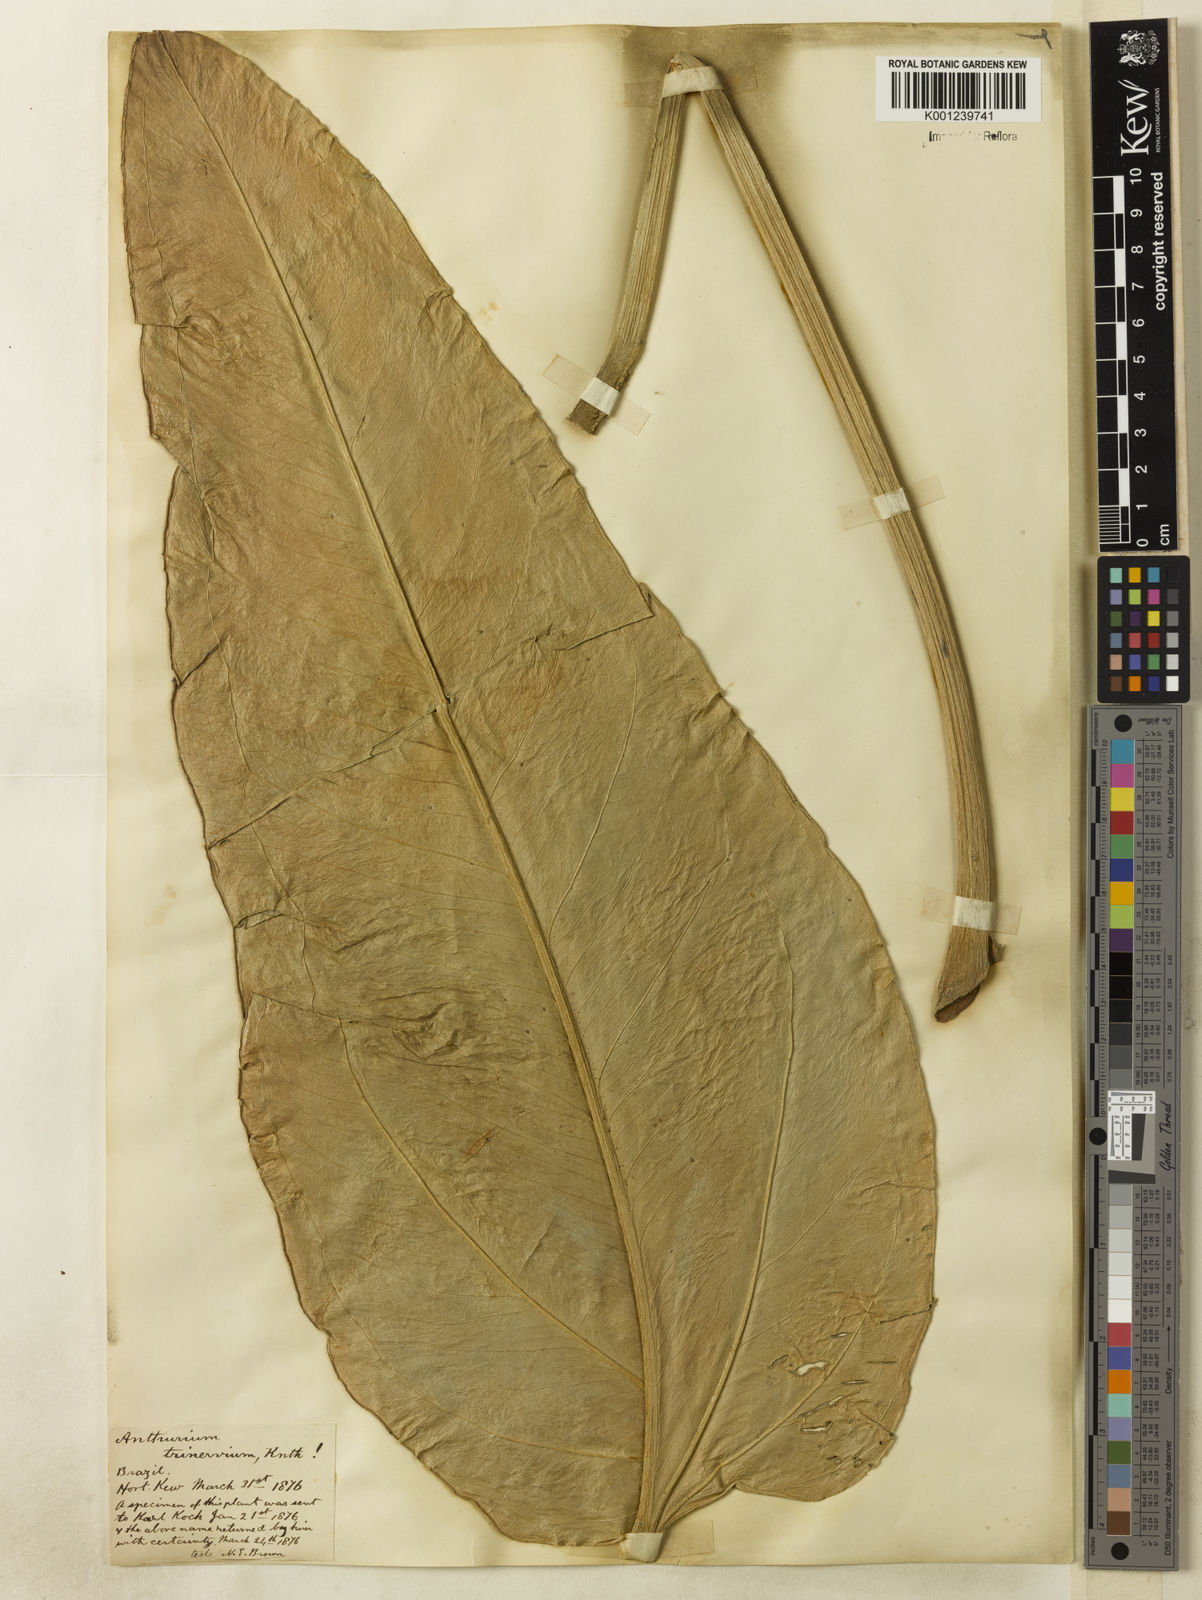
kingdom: Plantae
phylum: Tracheophyta
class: Liliopsida
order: Alismatales
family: Araceae
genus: Anthurium
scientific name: Anthurium trinervium
